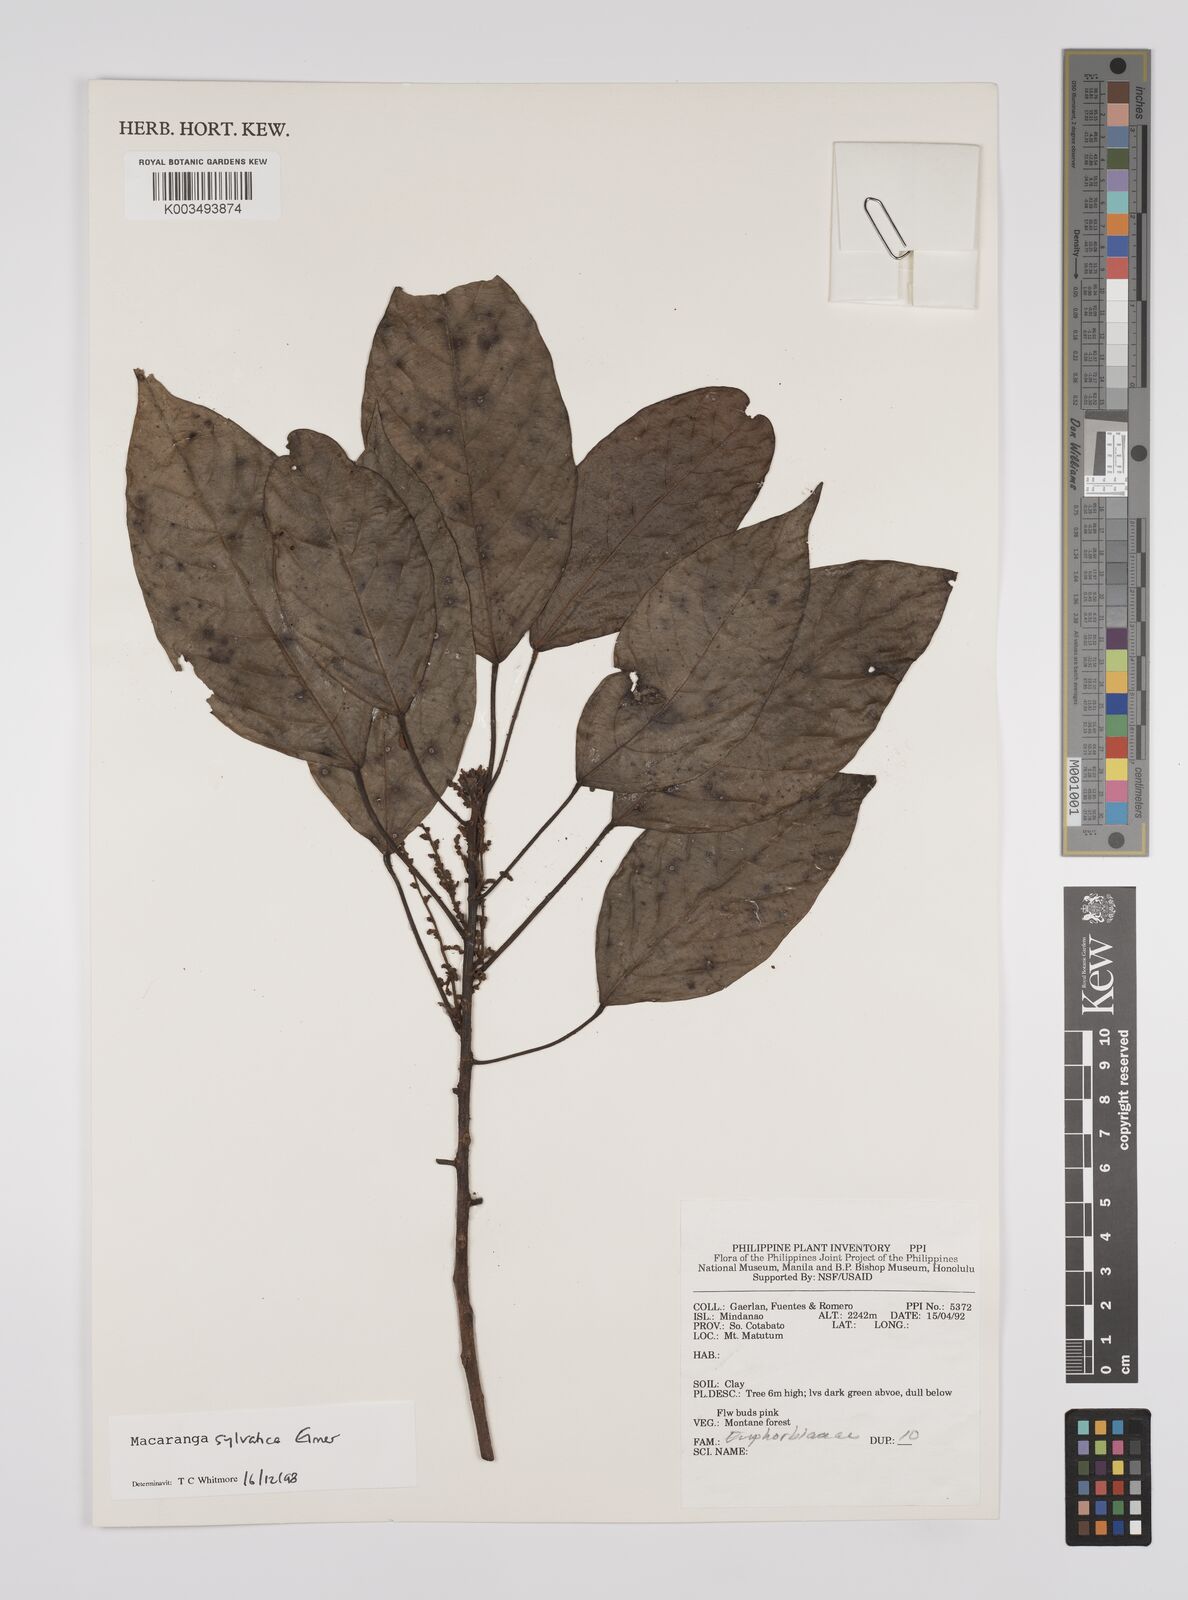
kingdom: Plantae
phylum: Tracheophyta
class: Magnoliopsida
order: Malpighiales
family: Euphorbiaceae
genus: Macaranga
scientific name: Macaranga sylvatica
